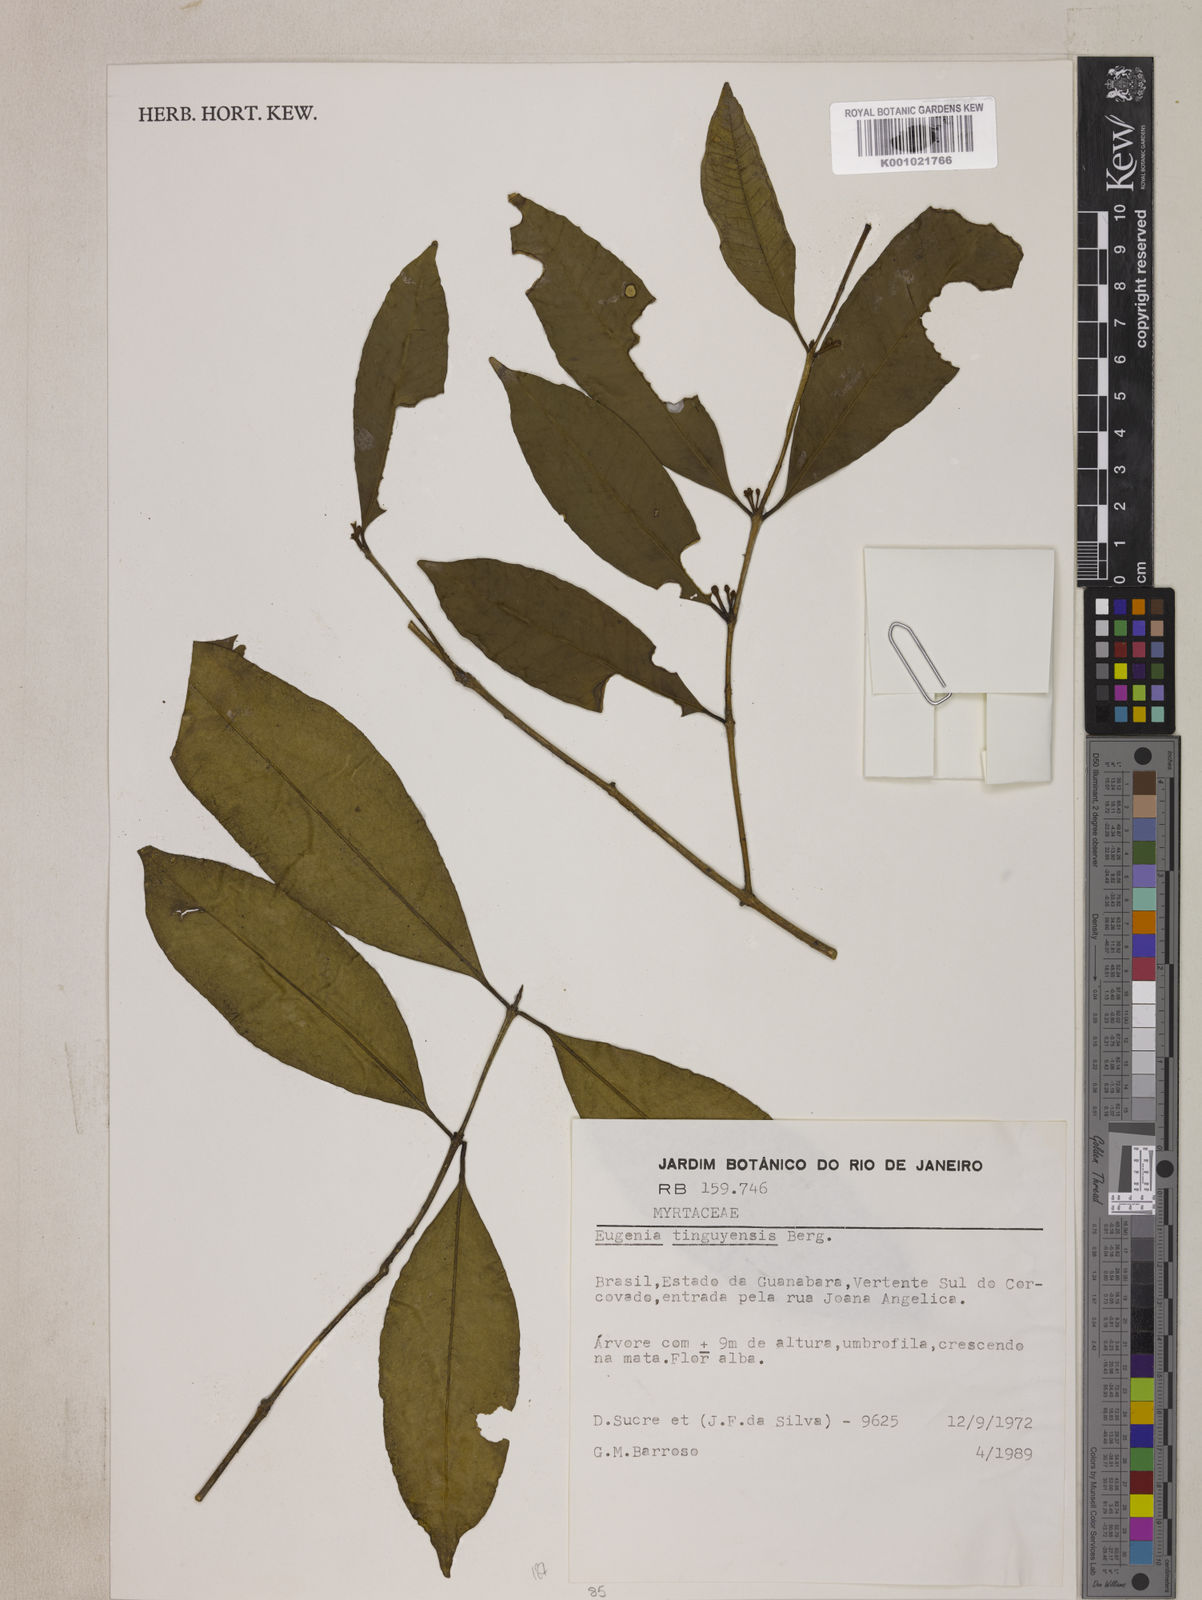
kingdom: Plantae
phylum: Tracheophyta
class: Magnoliopsida
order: Myrtales
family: Myrtaceae
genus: Eugenia
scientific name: Eugenia pisiformis
